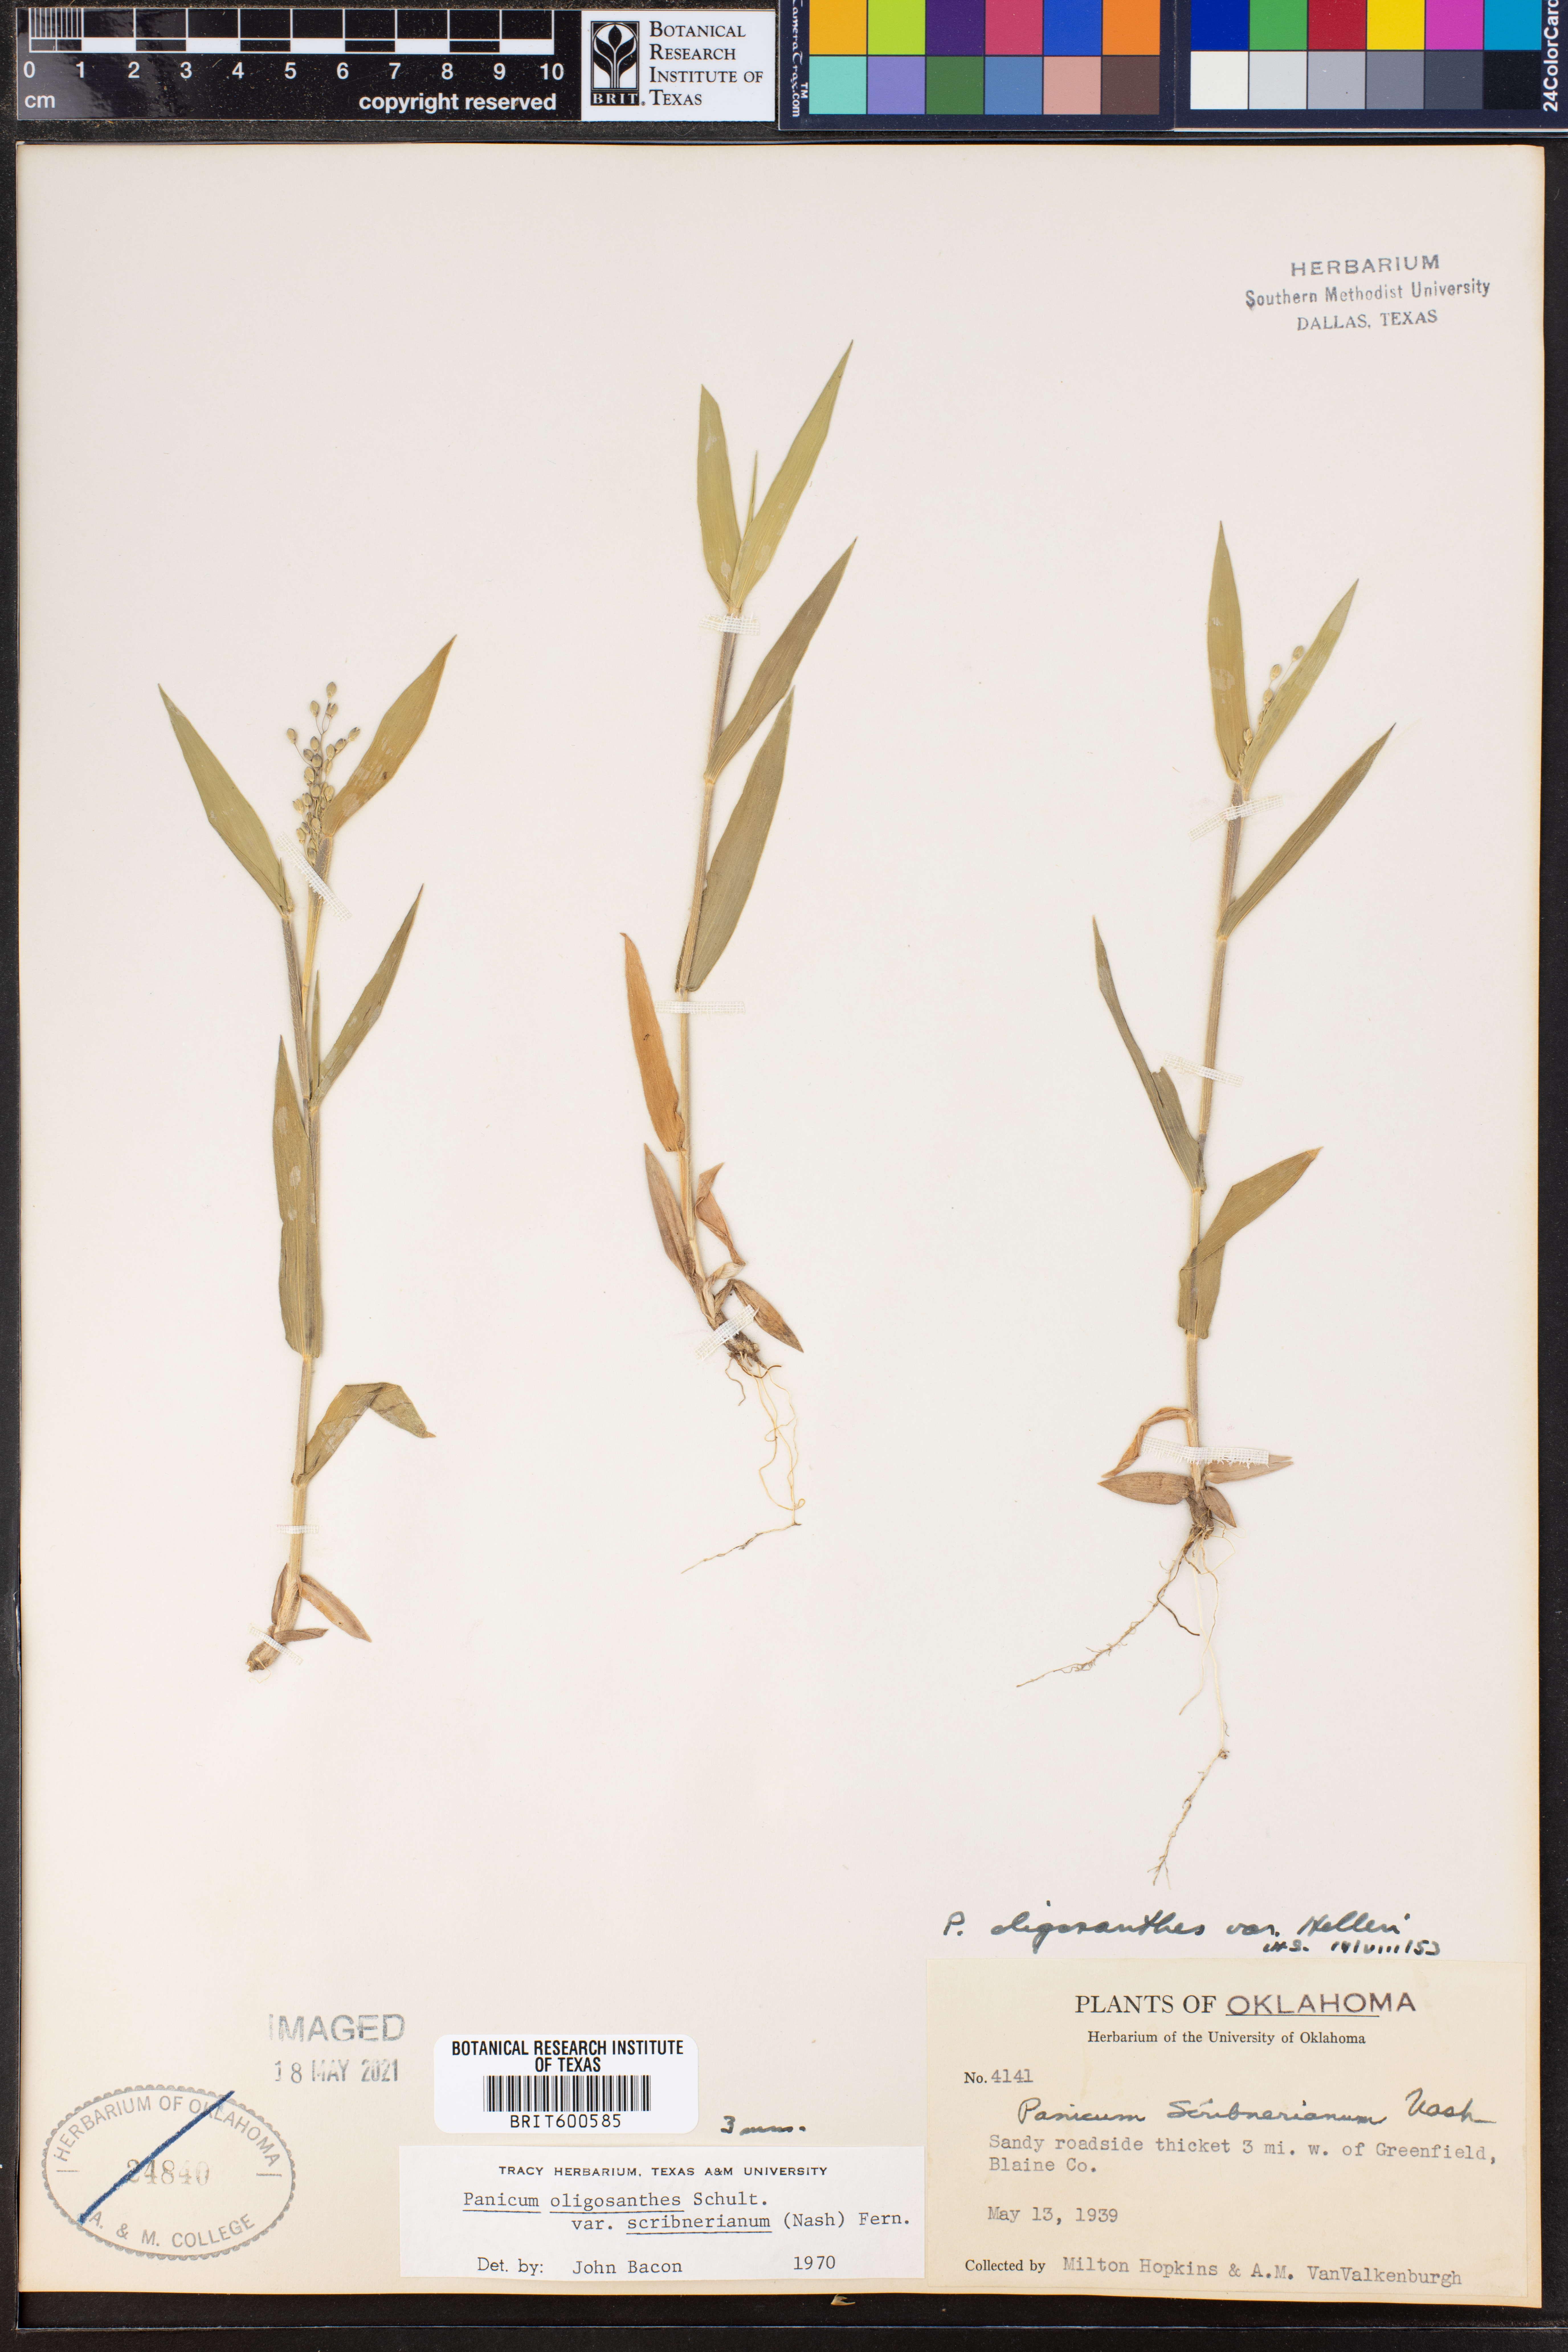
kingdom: Plantae
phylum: Tracheophyta
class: Liliopsida
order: Poales
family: Poaceae
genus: Dichanthelium
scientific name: Dichanthelium scribnerianum
